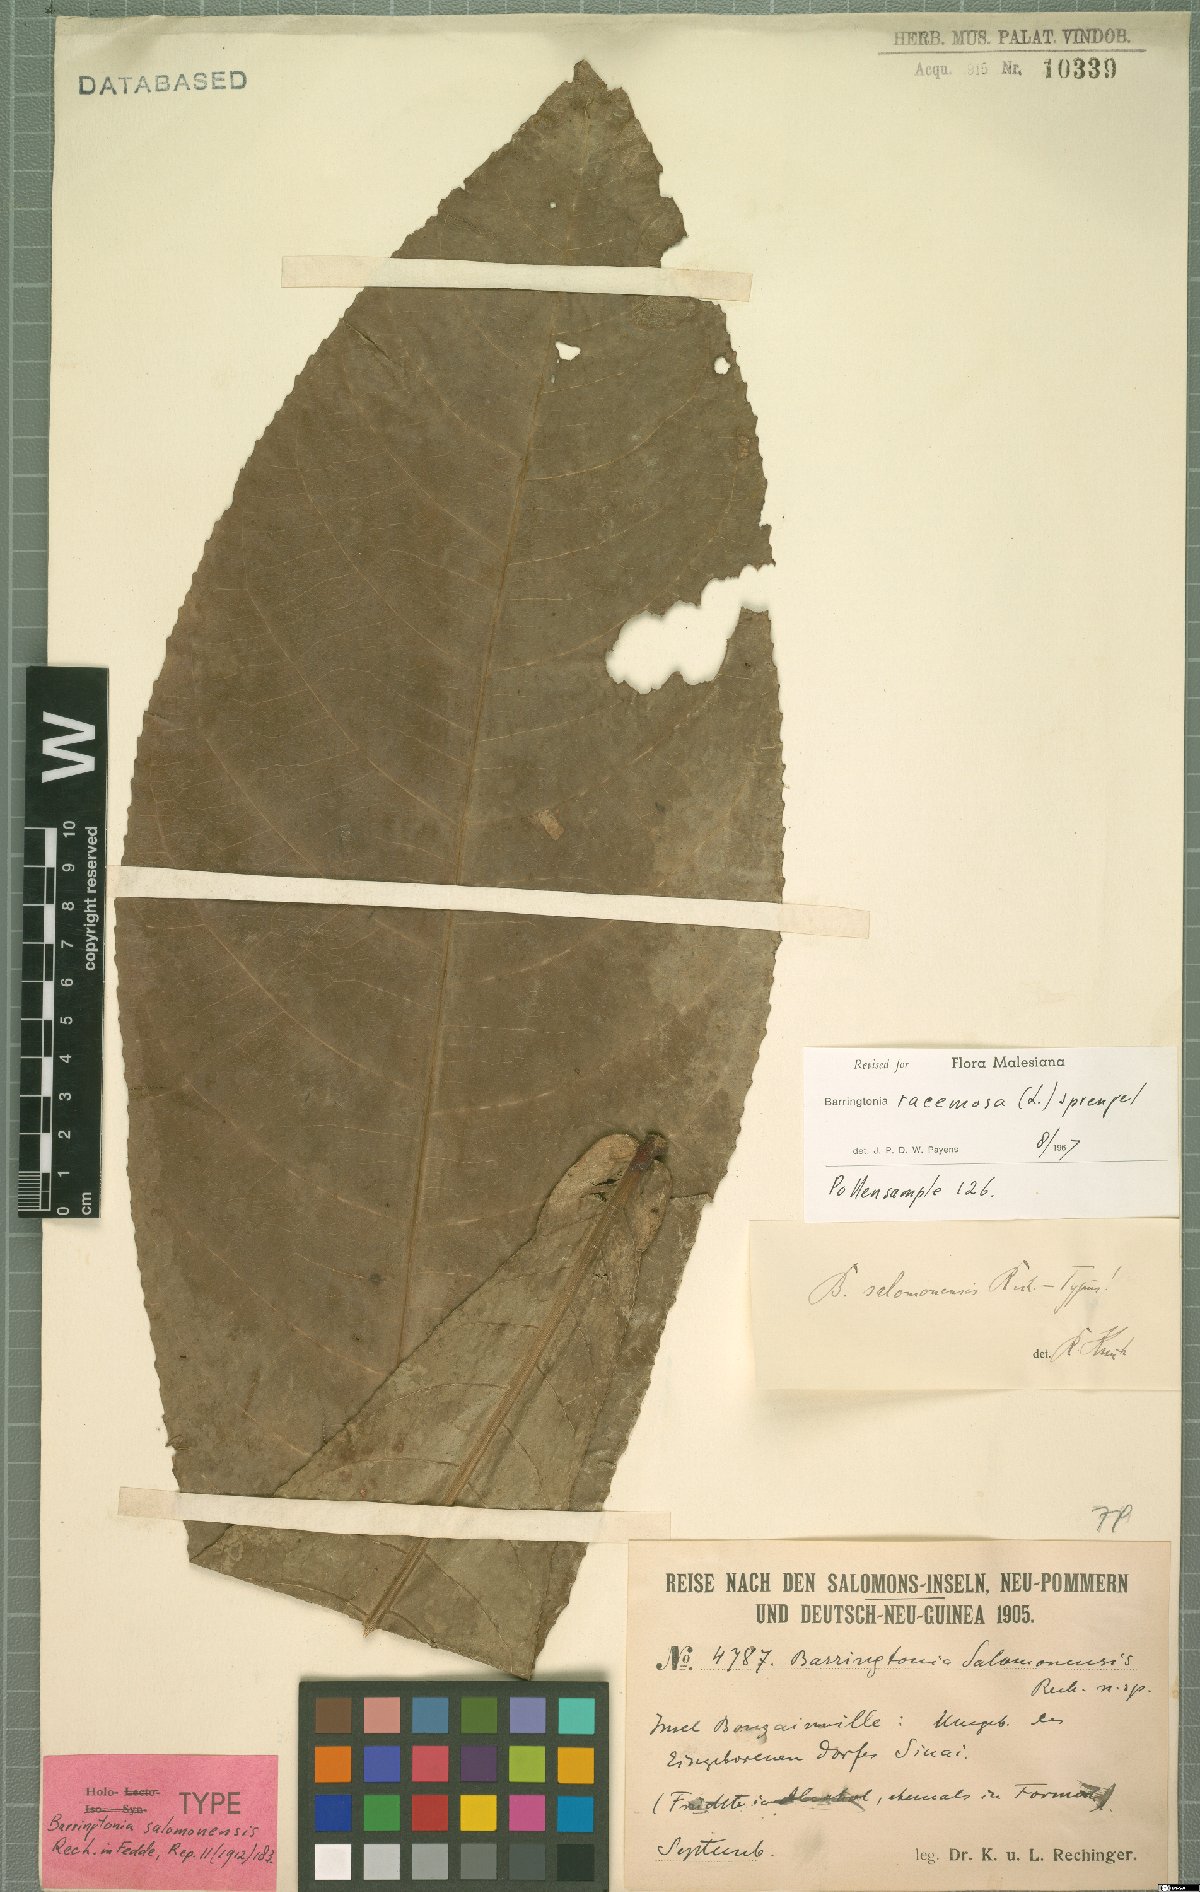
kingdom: Plantae
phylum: Tracheophyta
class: Magnoliopsida
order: Ericales
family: Lecythidaceae
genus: Barringtonia
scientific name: Barringtonia racemosa
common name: Brackwater mangrove
